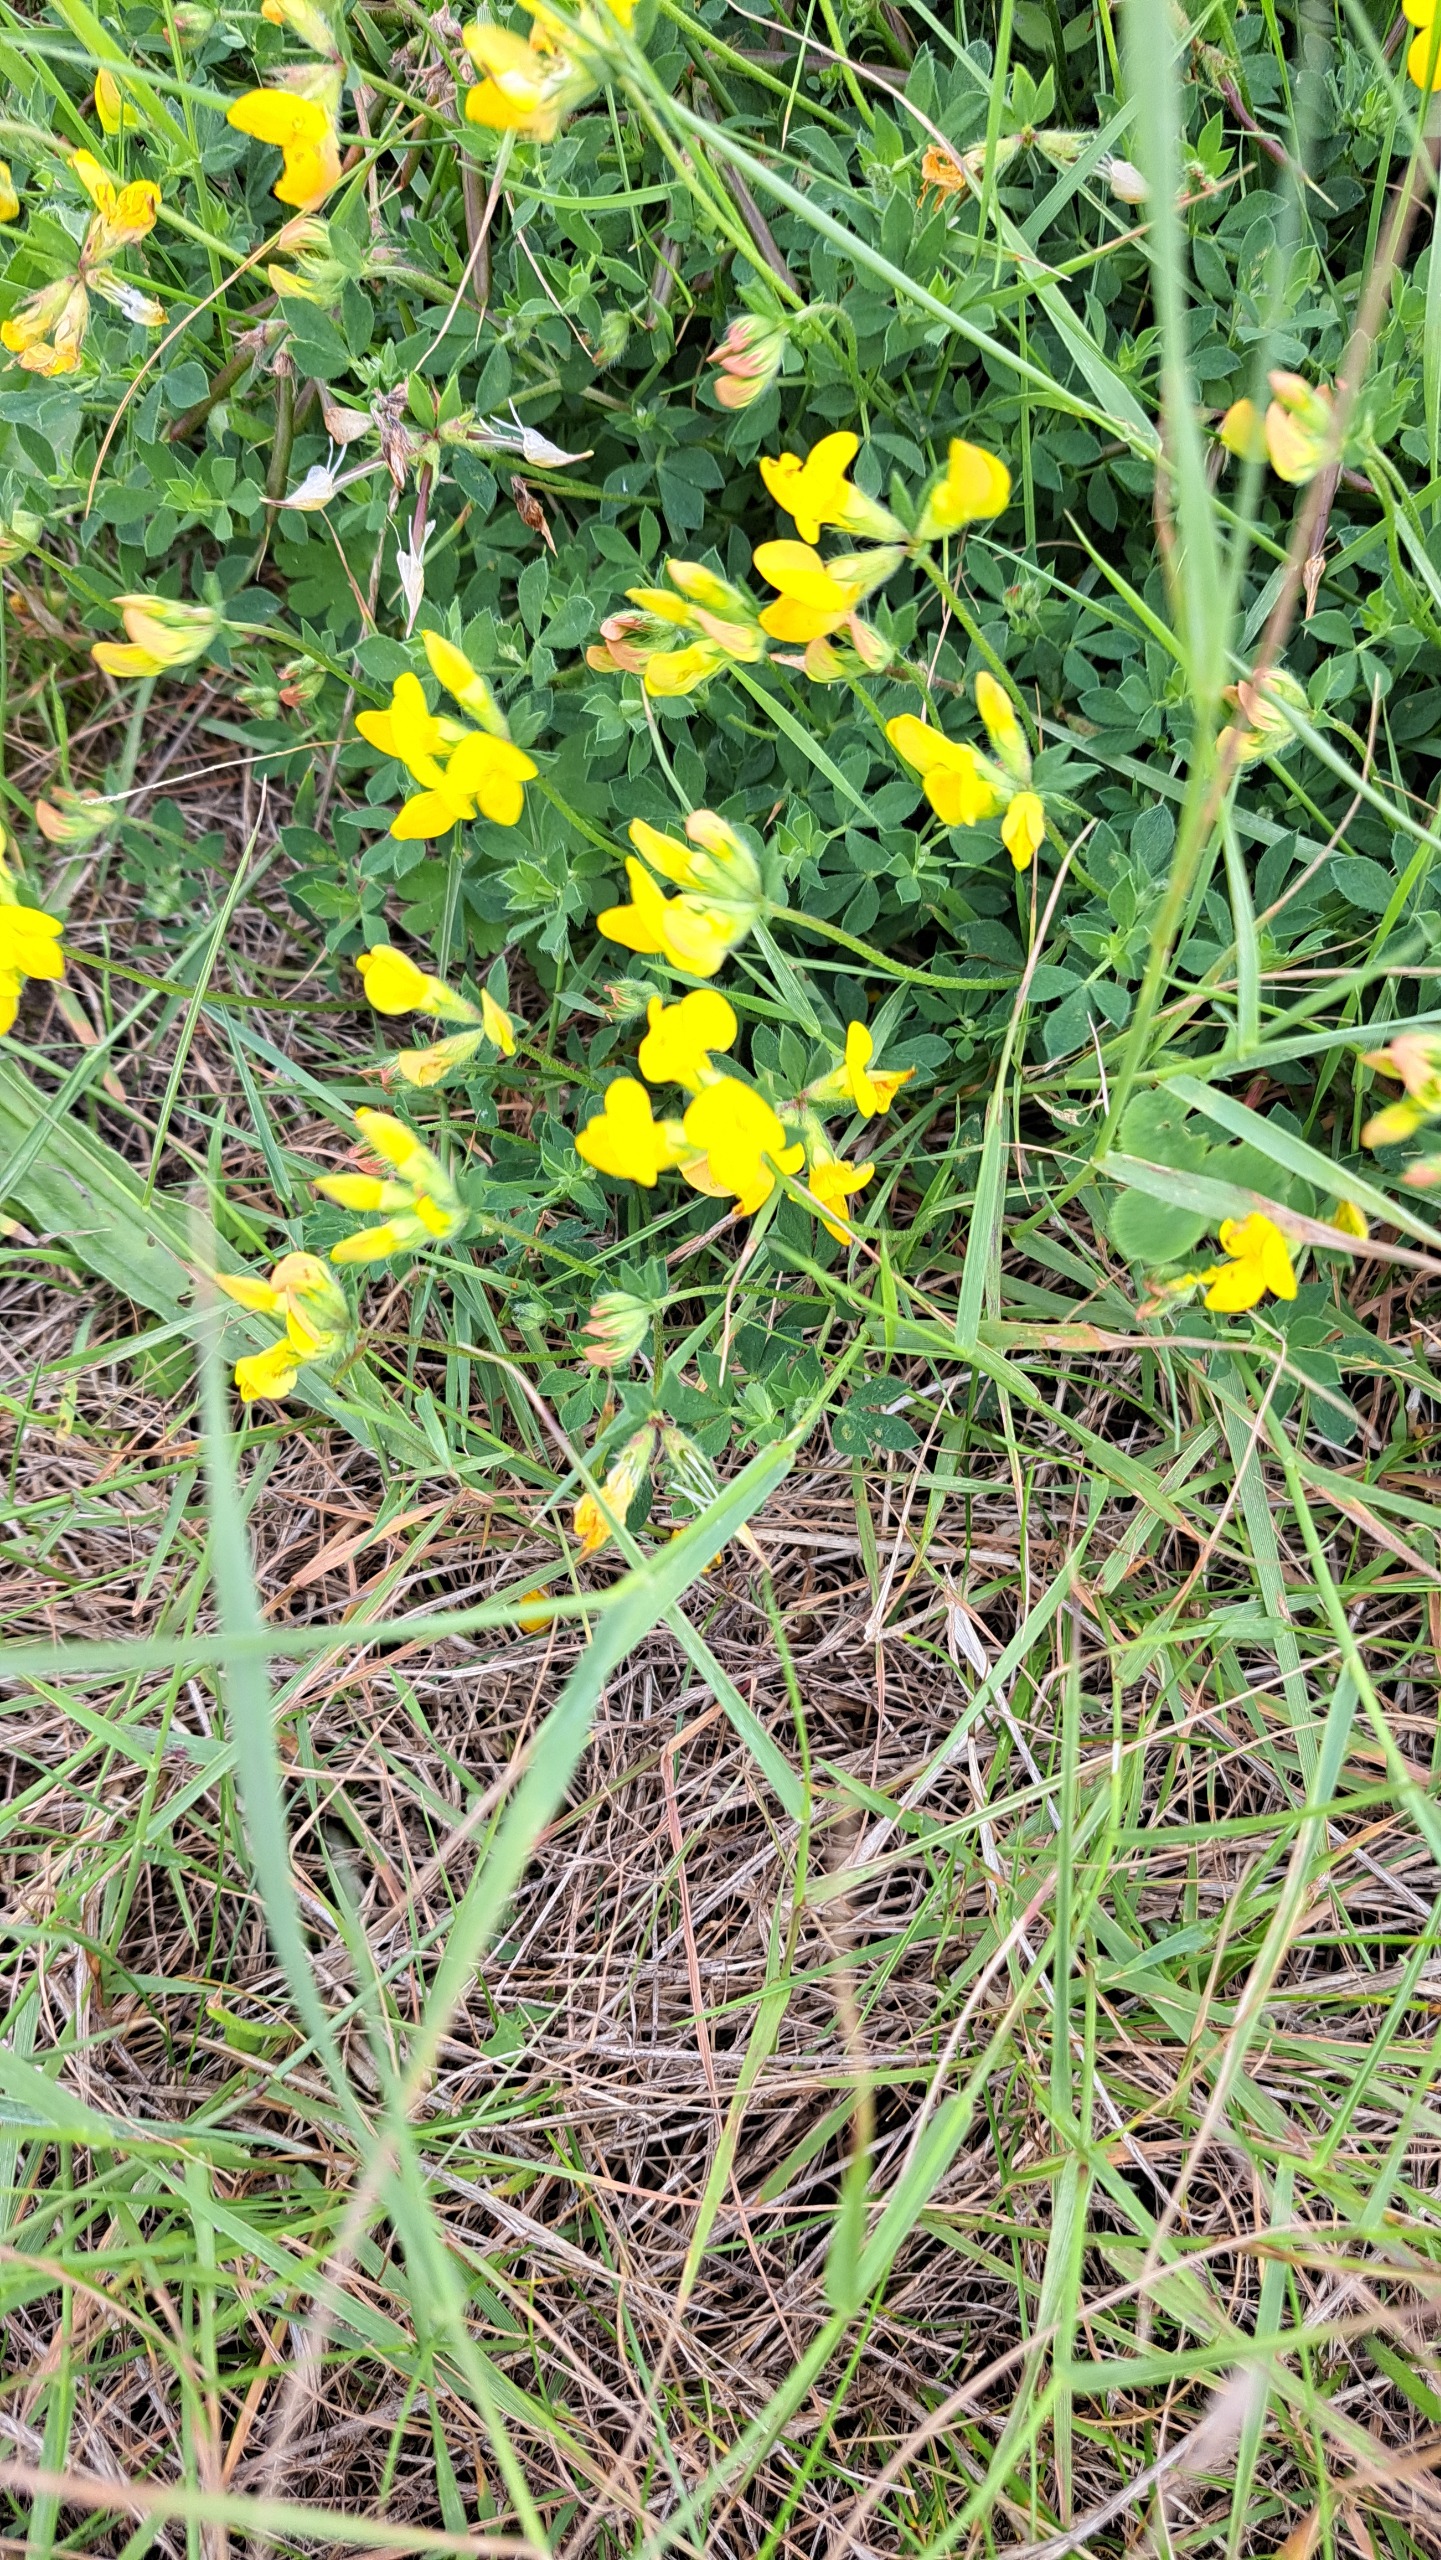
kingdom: Plantae
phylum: Tracheophyta
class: Magnoliopsida
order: Fabales
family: Fabaceae
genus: Lotus
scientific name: Lotus corniculatus
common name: Almindelig kællingetand
